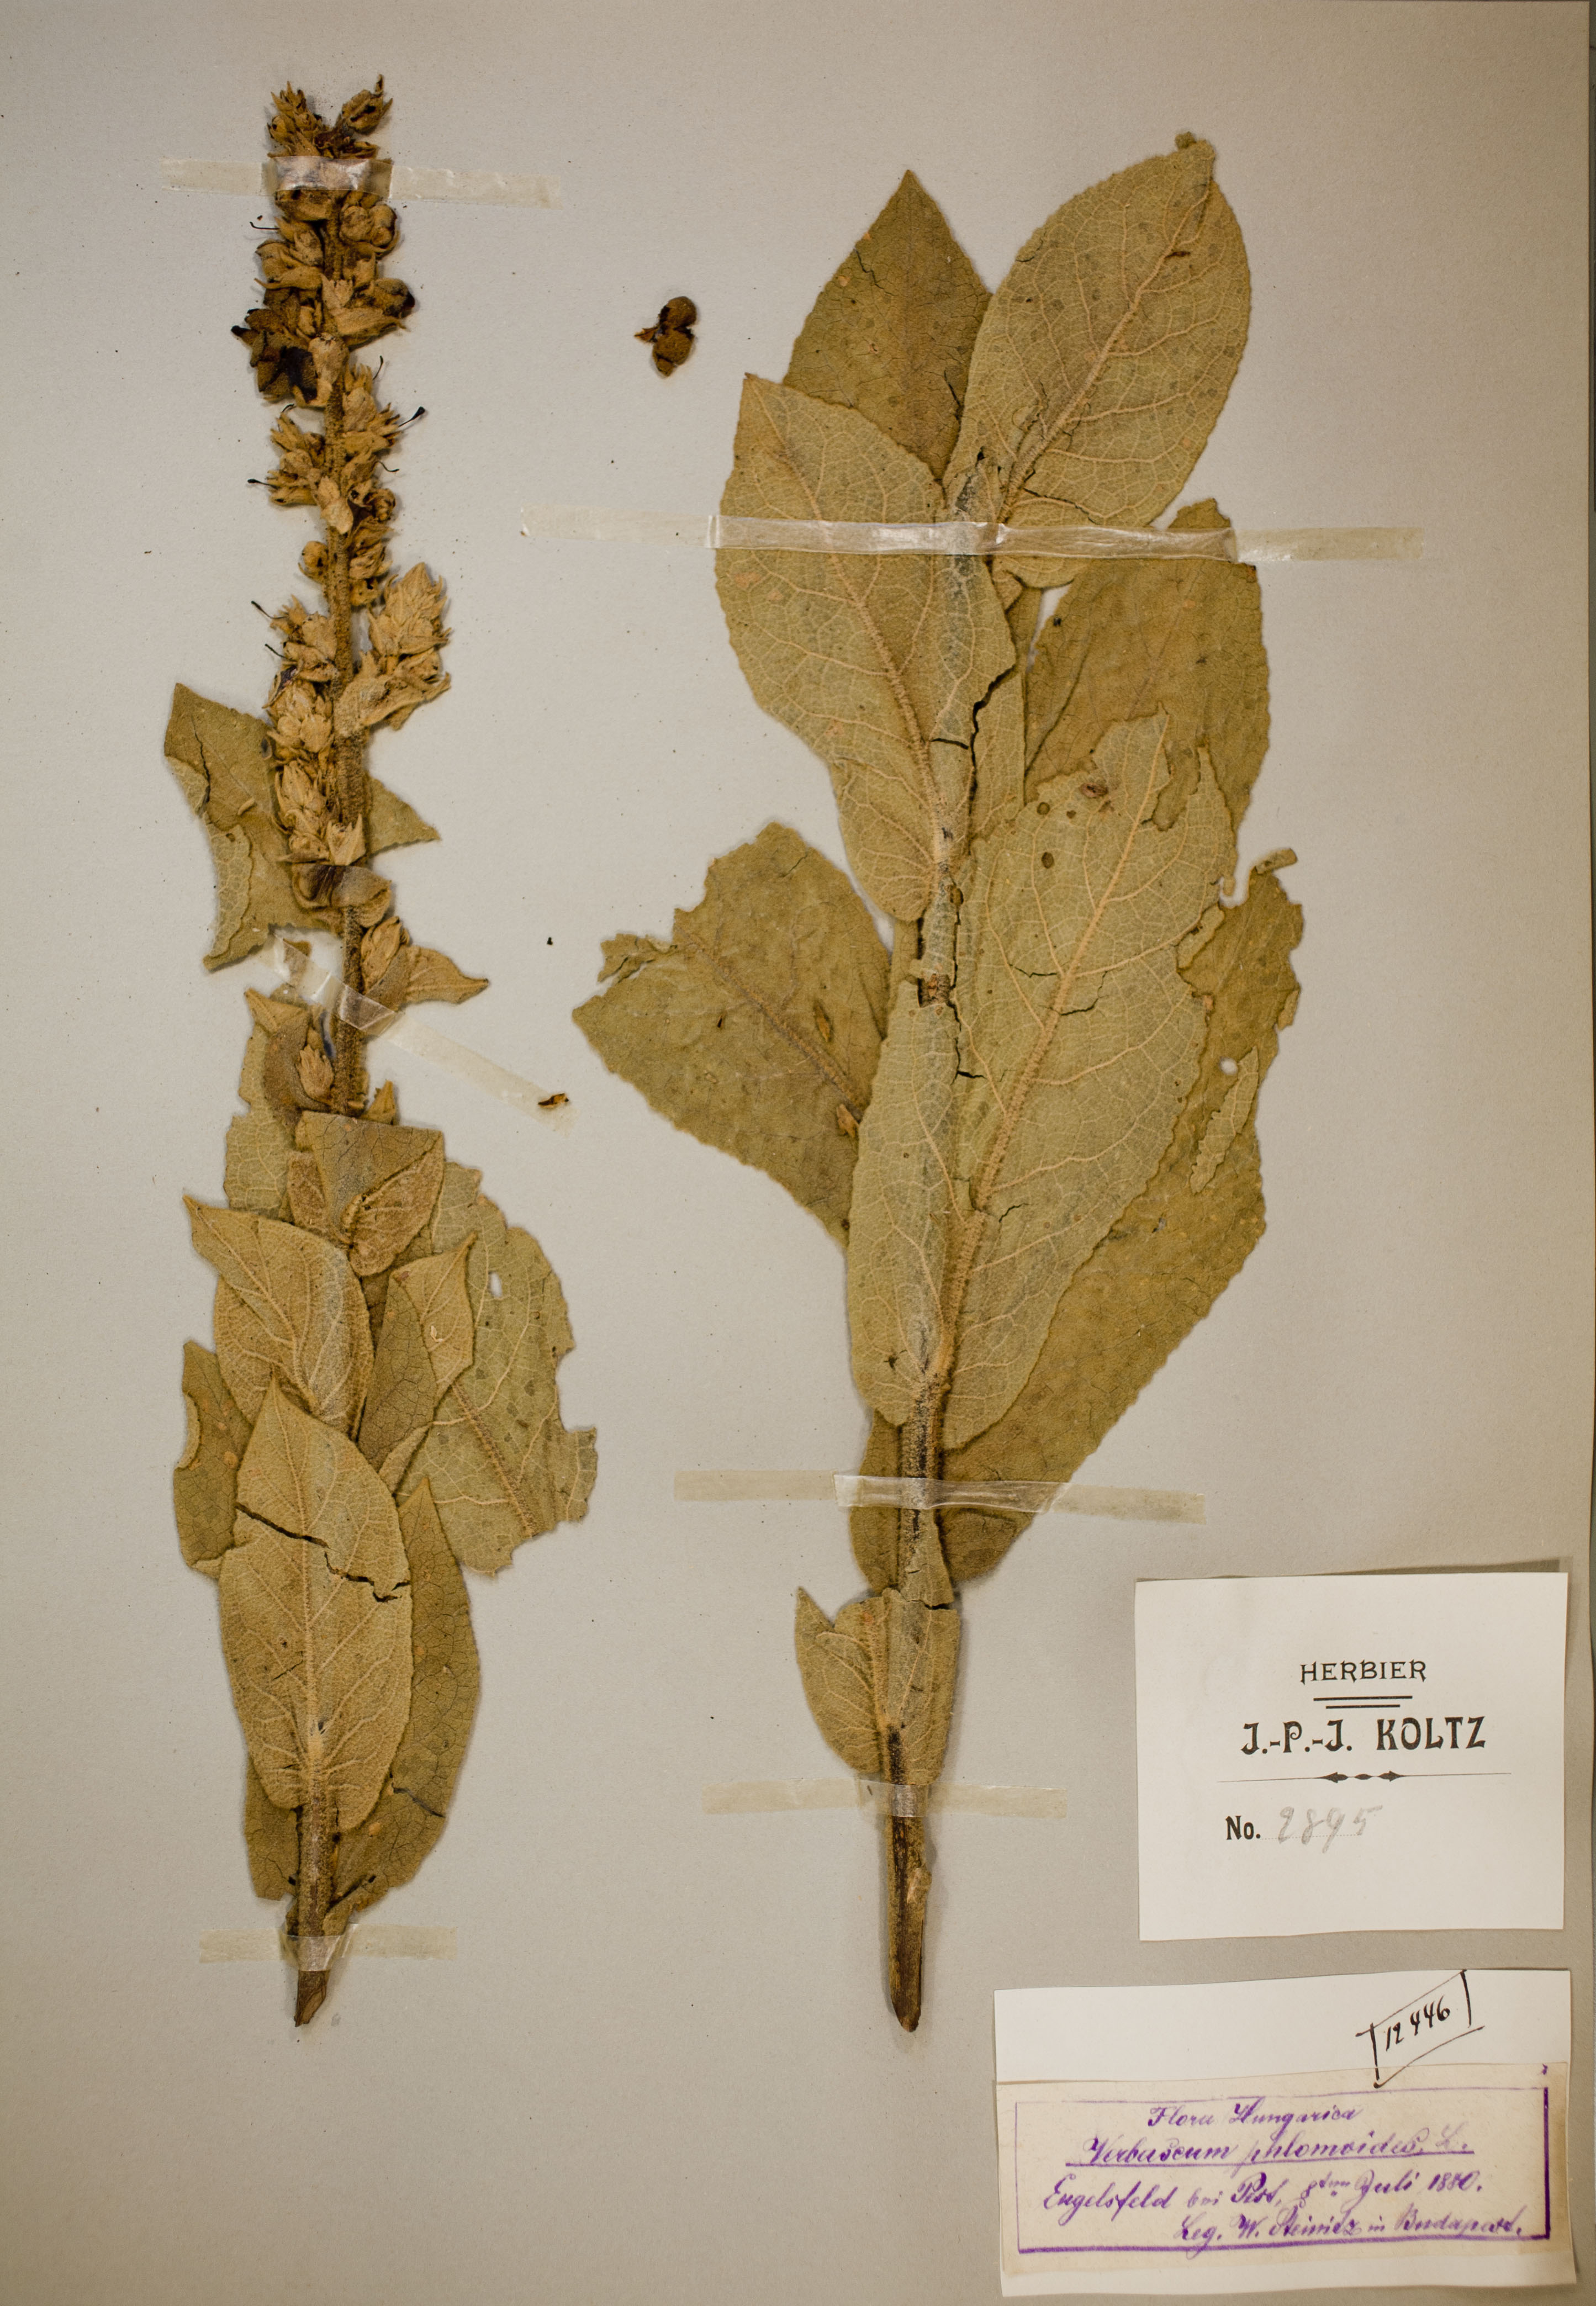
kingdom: Plantae
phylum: Tracheophyta
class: Magnoliopsida
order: Lamiales
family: Scrophulariaceae
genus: Verbascum
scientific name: Verbascum phlomoides
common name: Orange mullein
